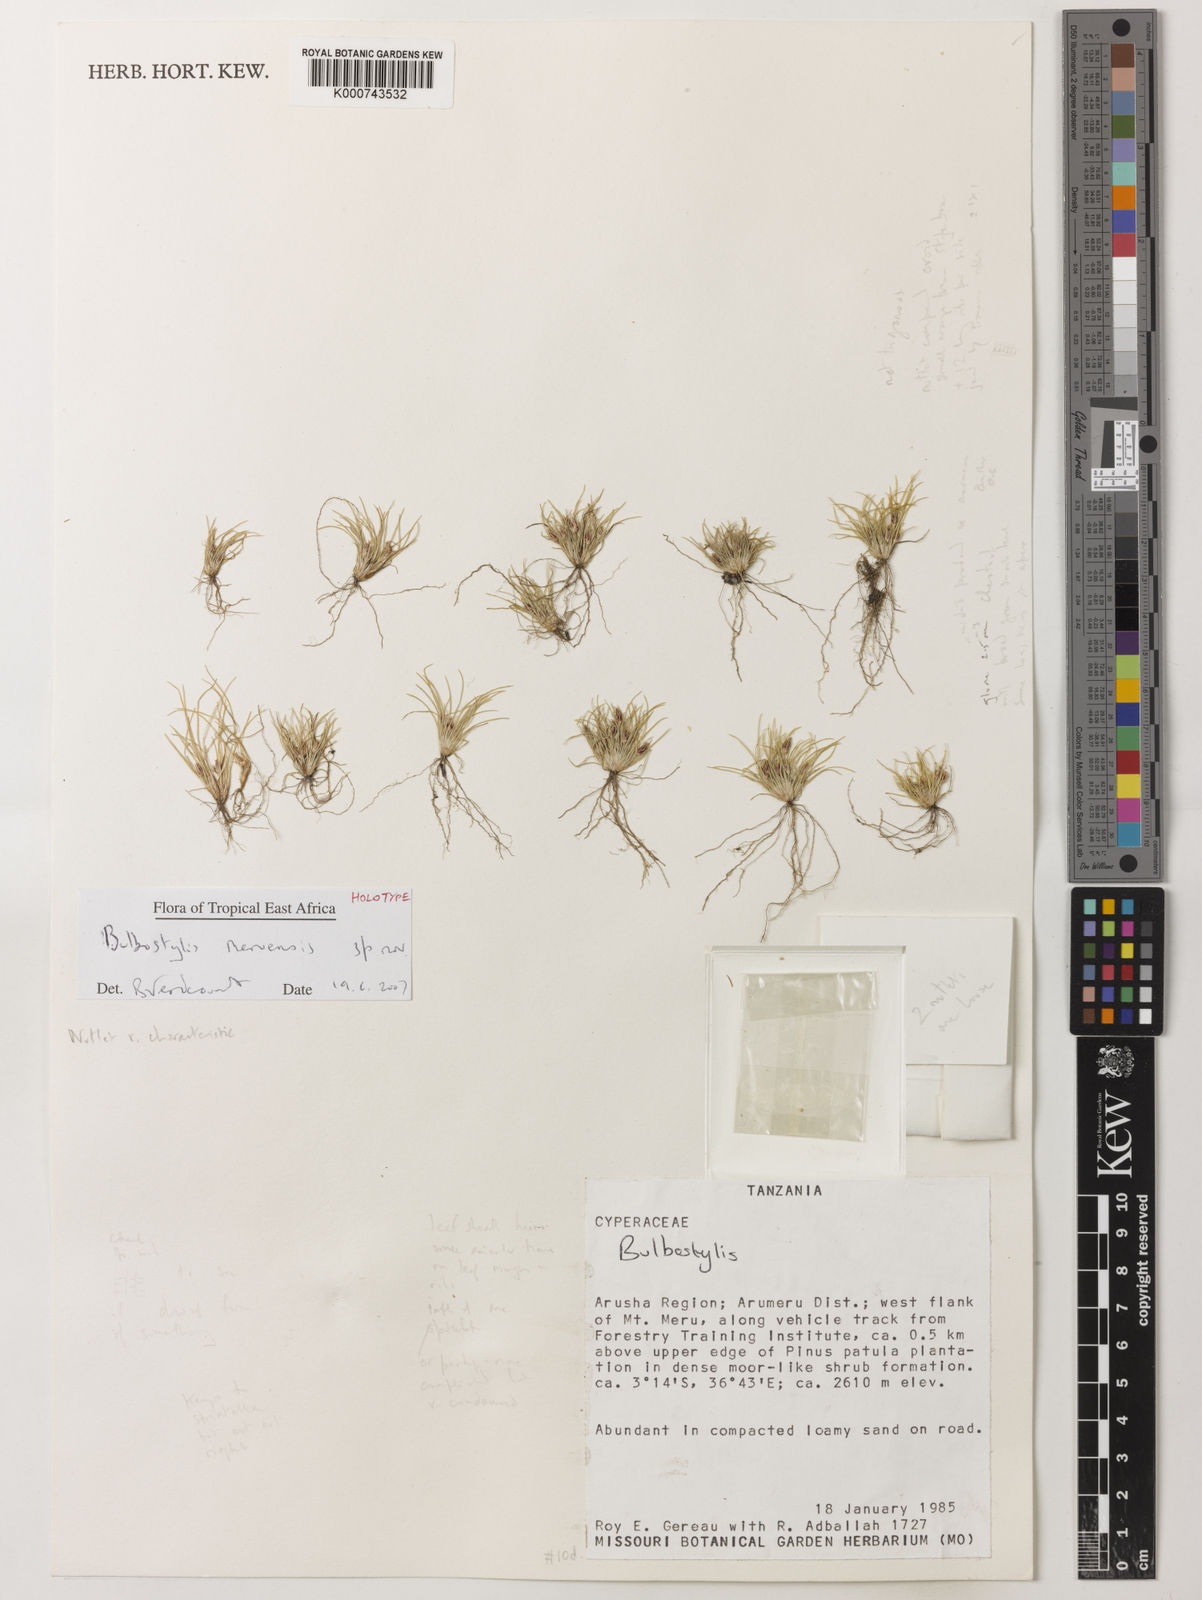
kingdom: Plantae
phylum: Tracheophyta
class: Liliopsida
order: Poales
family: Cyperaceae
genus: Bulbostylis
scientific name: Bulbostylis meruensis
